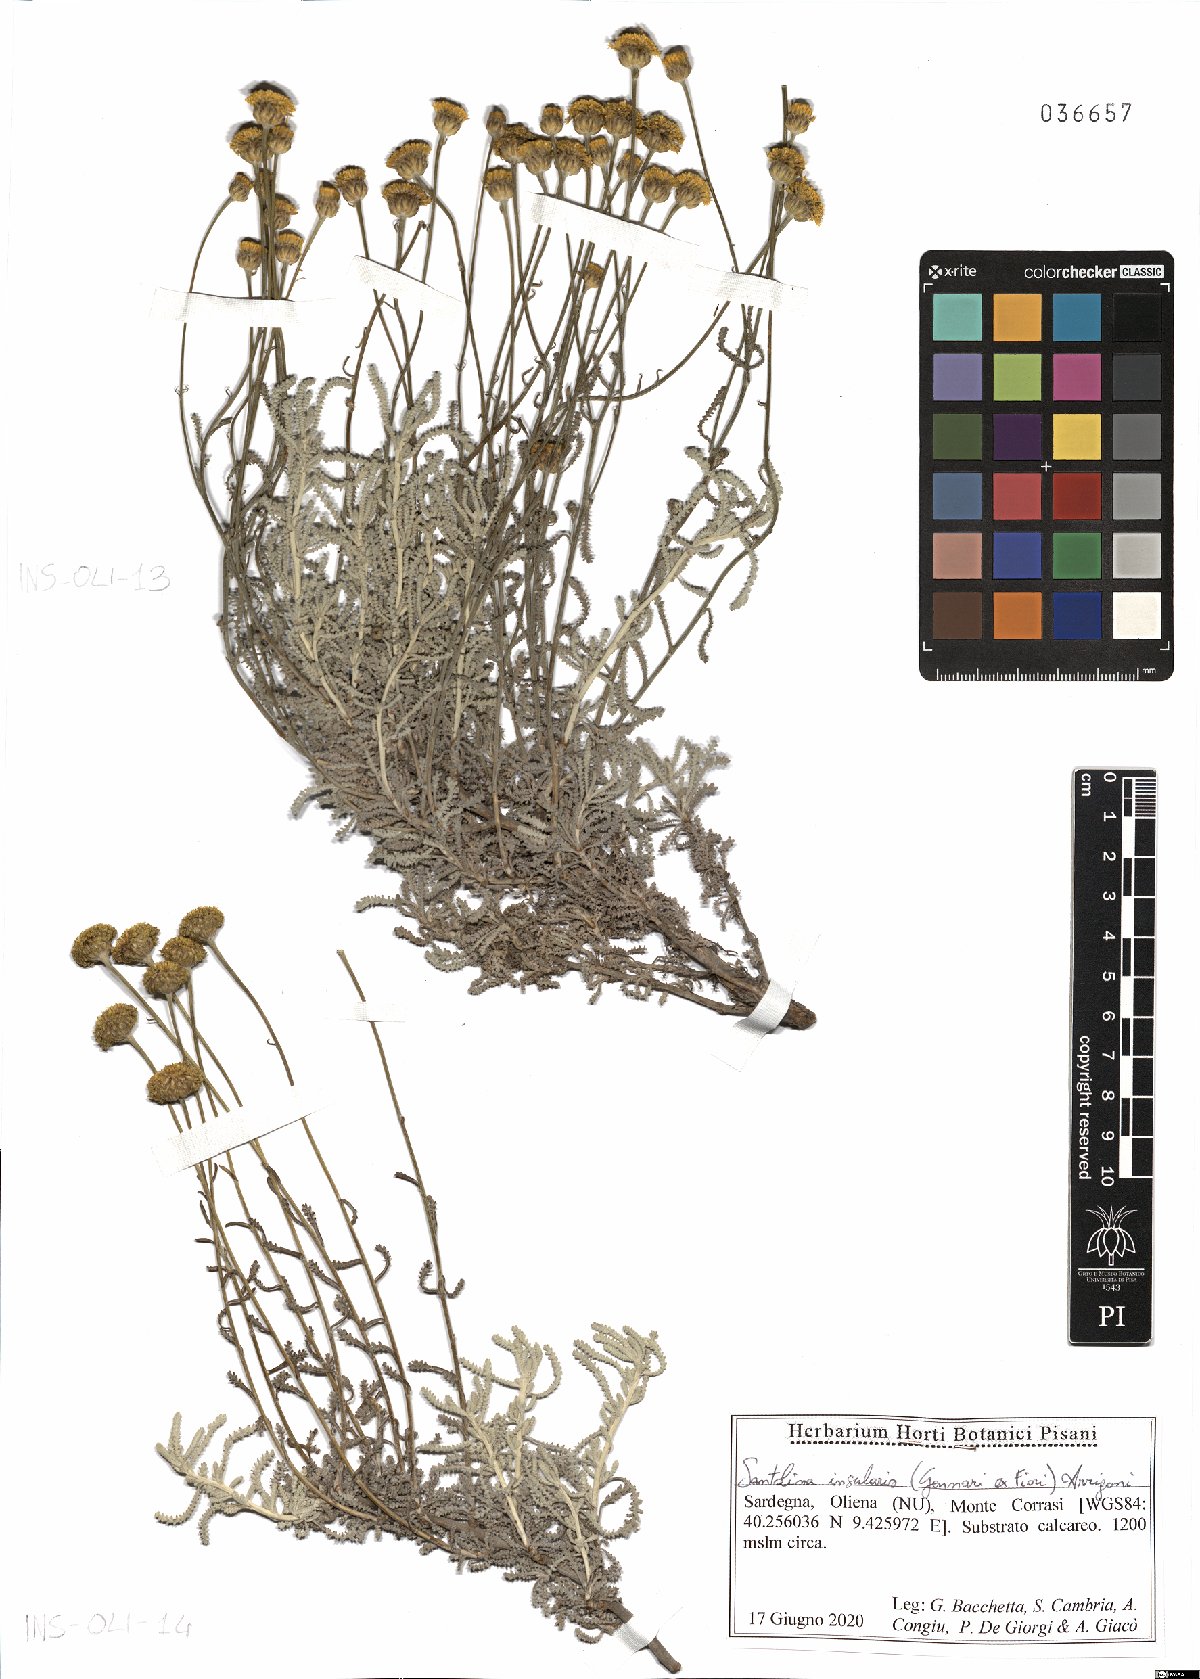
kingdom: Plantae
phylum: Tracheophyta
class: Magnoliopsida
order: Asterales
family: Asteraceae
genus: Santolina
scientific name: Santolina insularis
